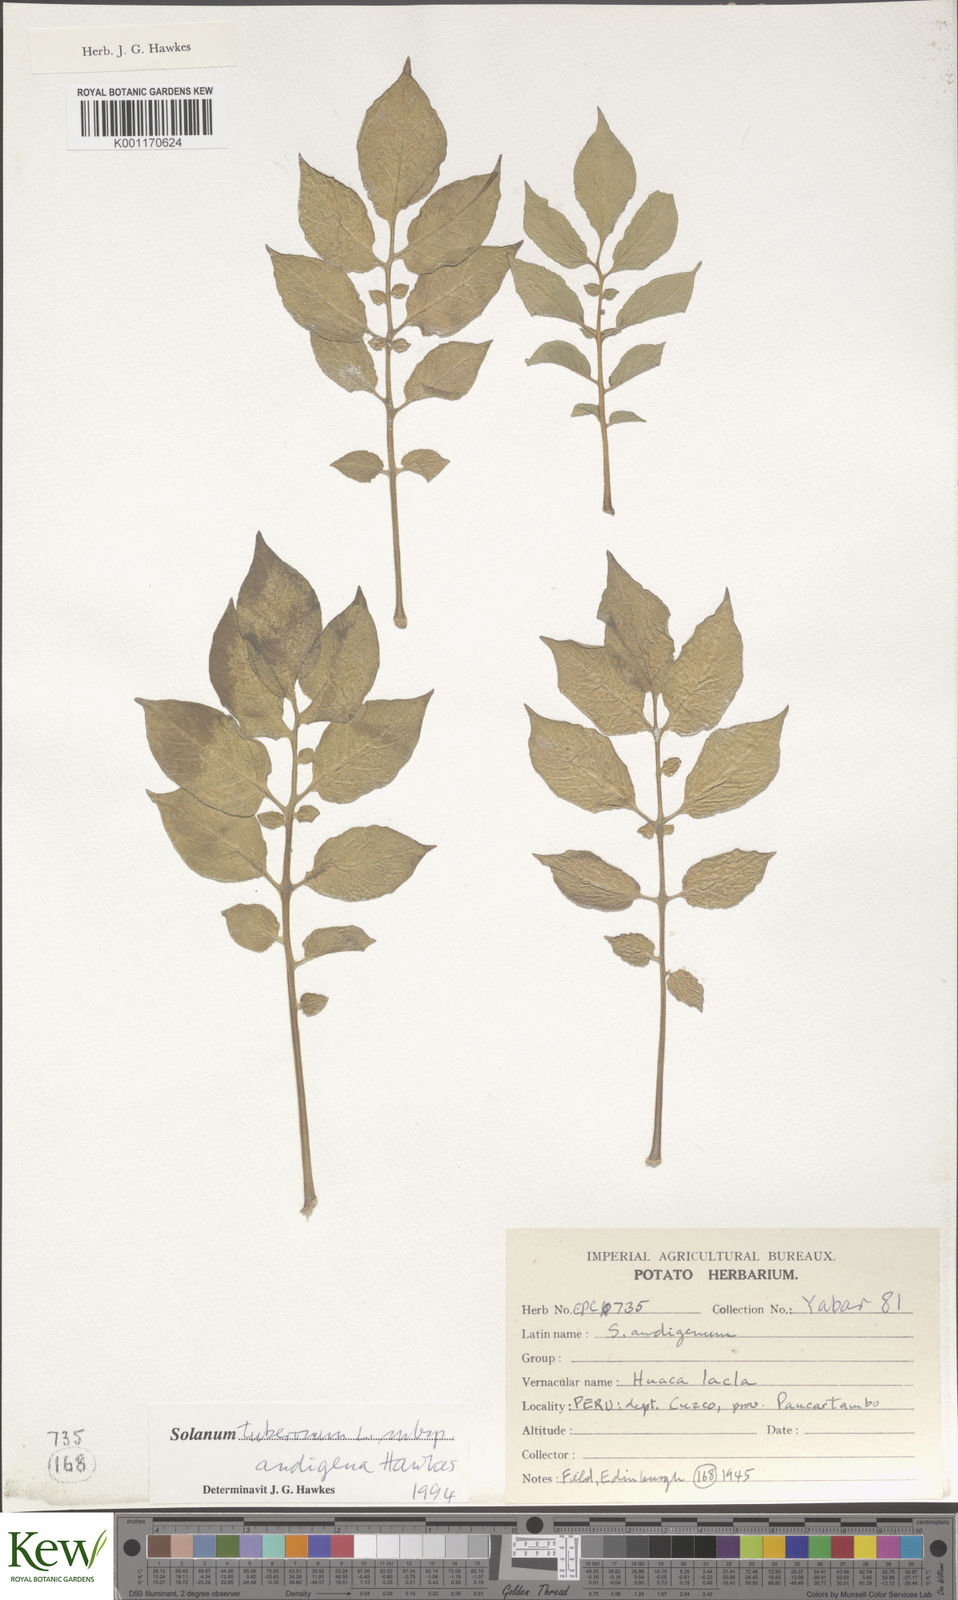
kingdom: Plantae
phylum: Tracheophyta
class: Magnoliopsida
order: Solanales
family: Solanaceae
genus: Solanum
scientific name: Solanum tuberosum
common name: Potato
